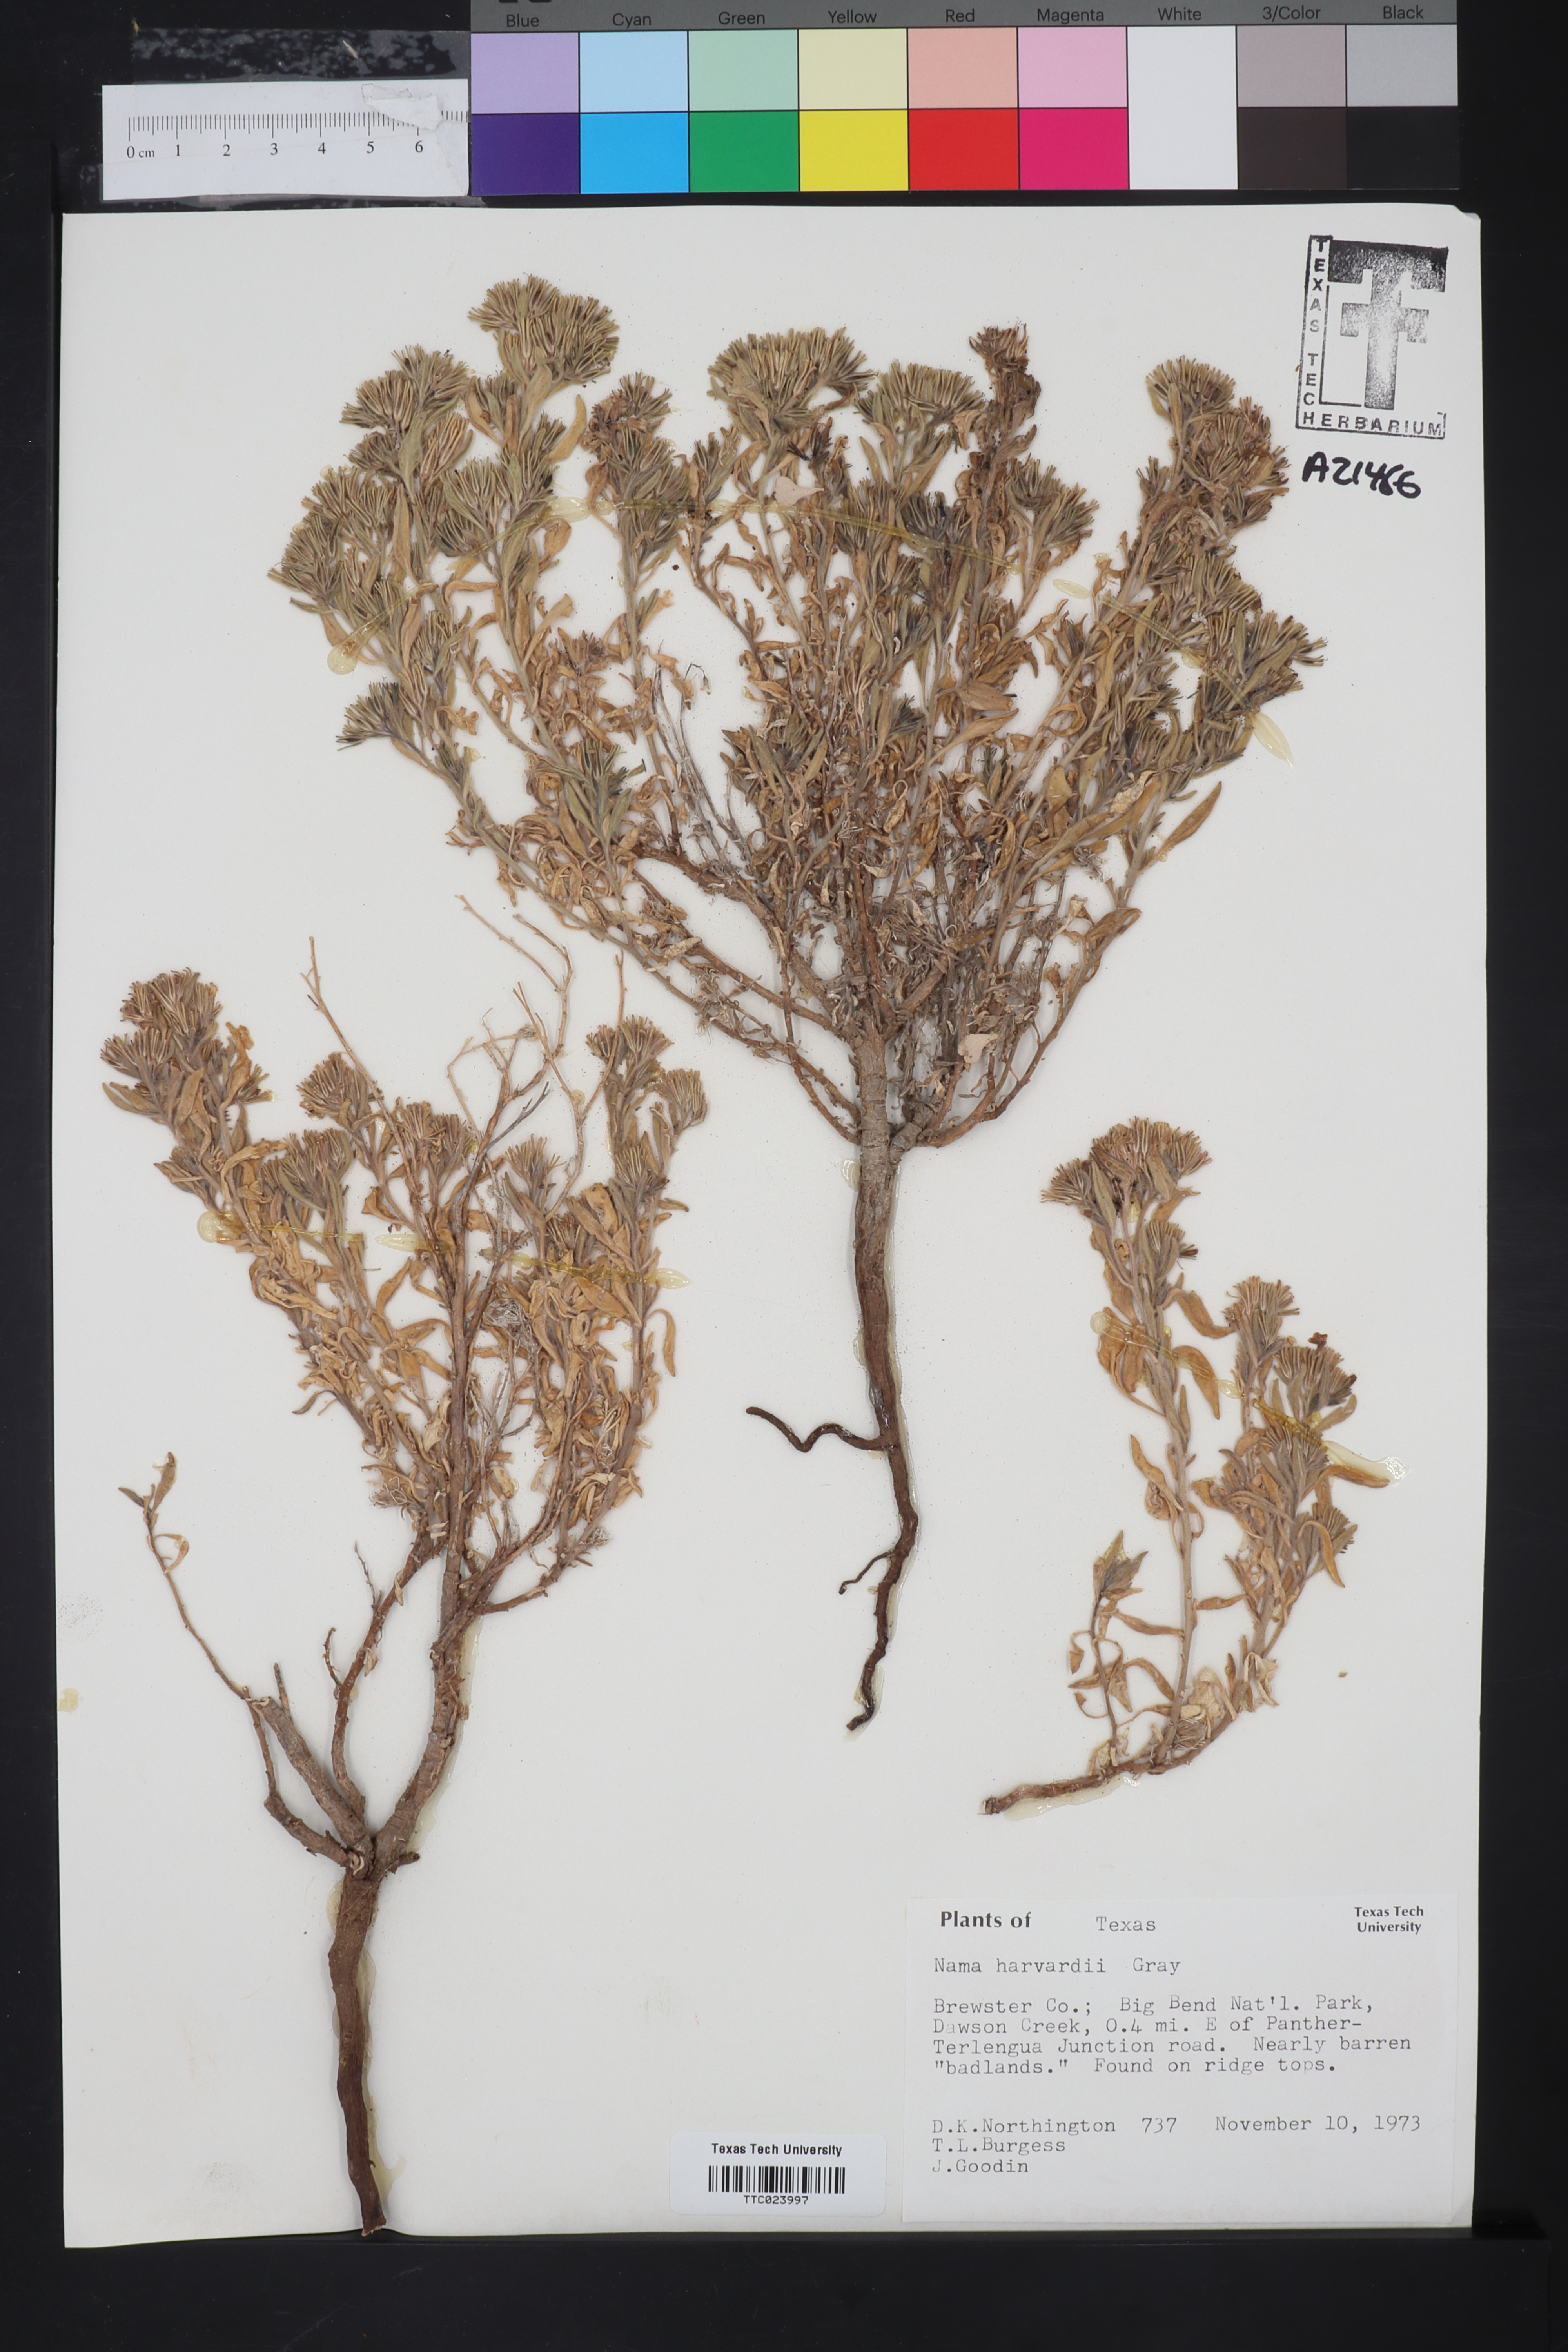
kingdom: Plantae
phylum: Tracheophyta
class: Magnoliopsida
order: Boraginales
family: Namaceae
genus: Nama
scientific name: Nama havardii
